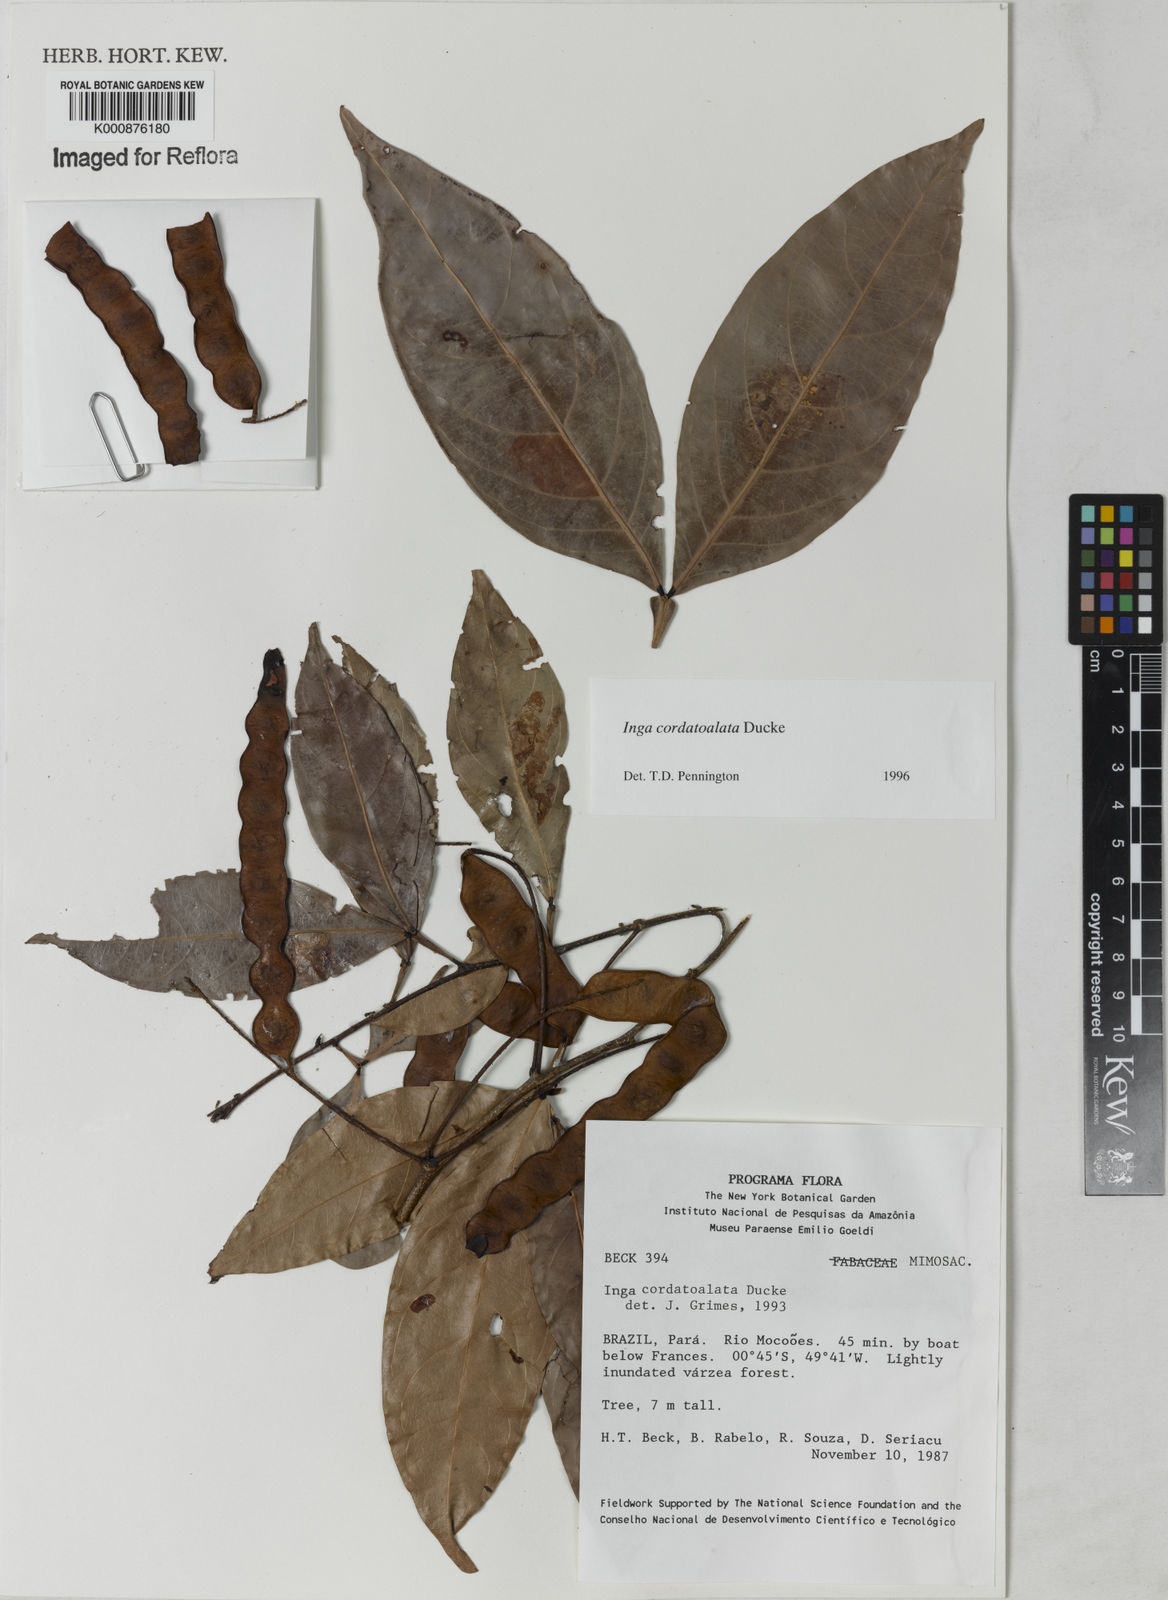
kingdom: Plantae
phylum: Tracheophyta
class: Magnoliopsida
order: Fabales
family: Fabaceae
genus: Inga
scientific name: Inga cordatoalata
